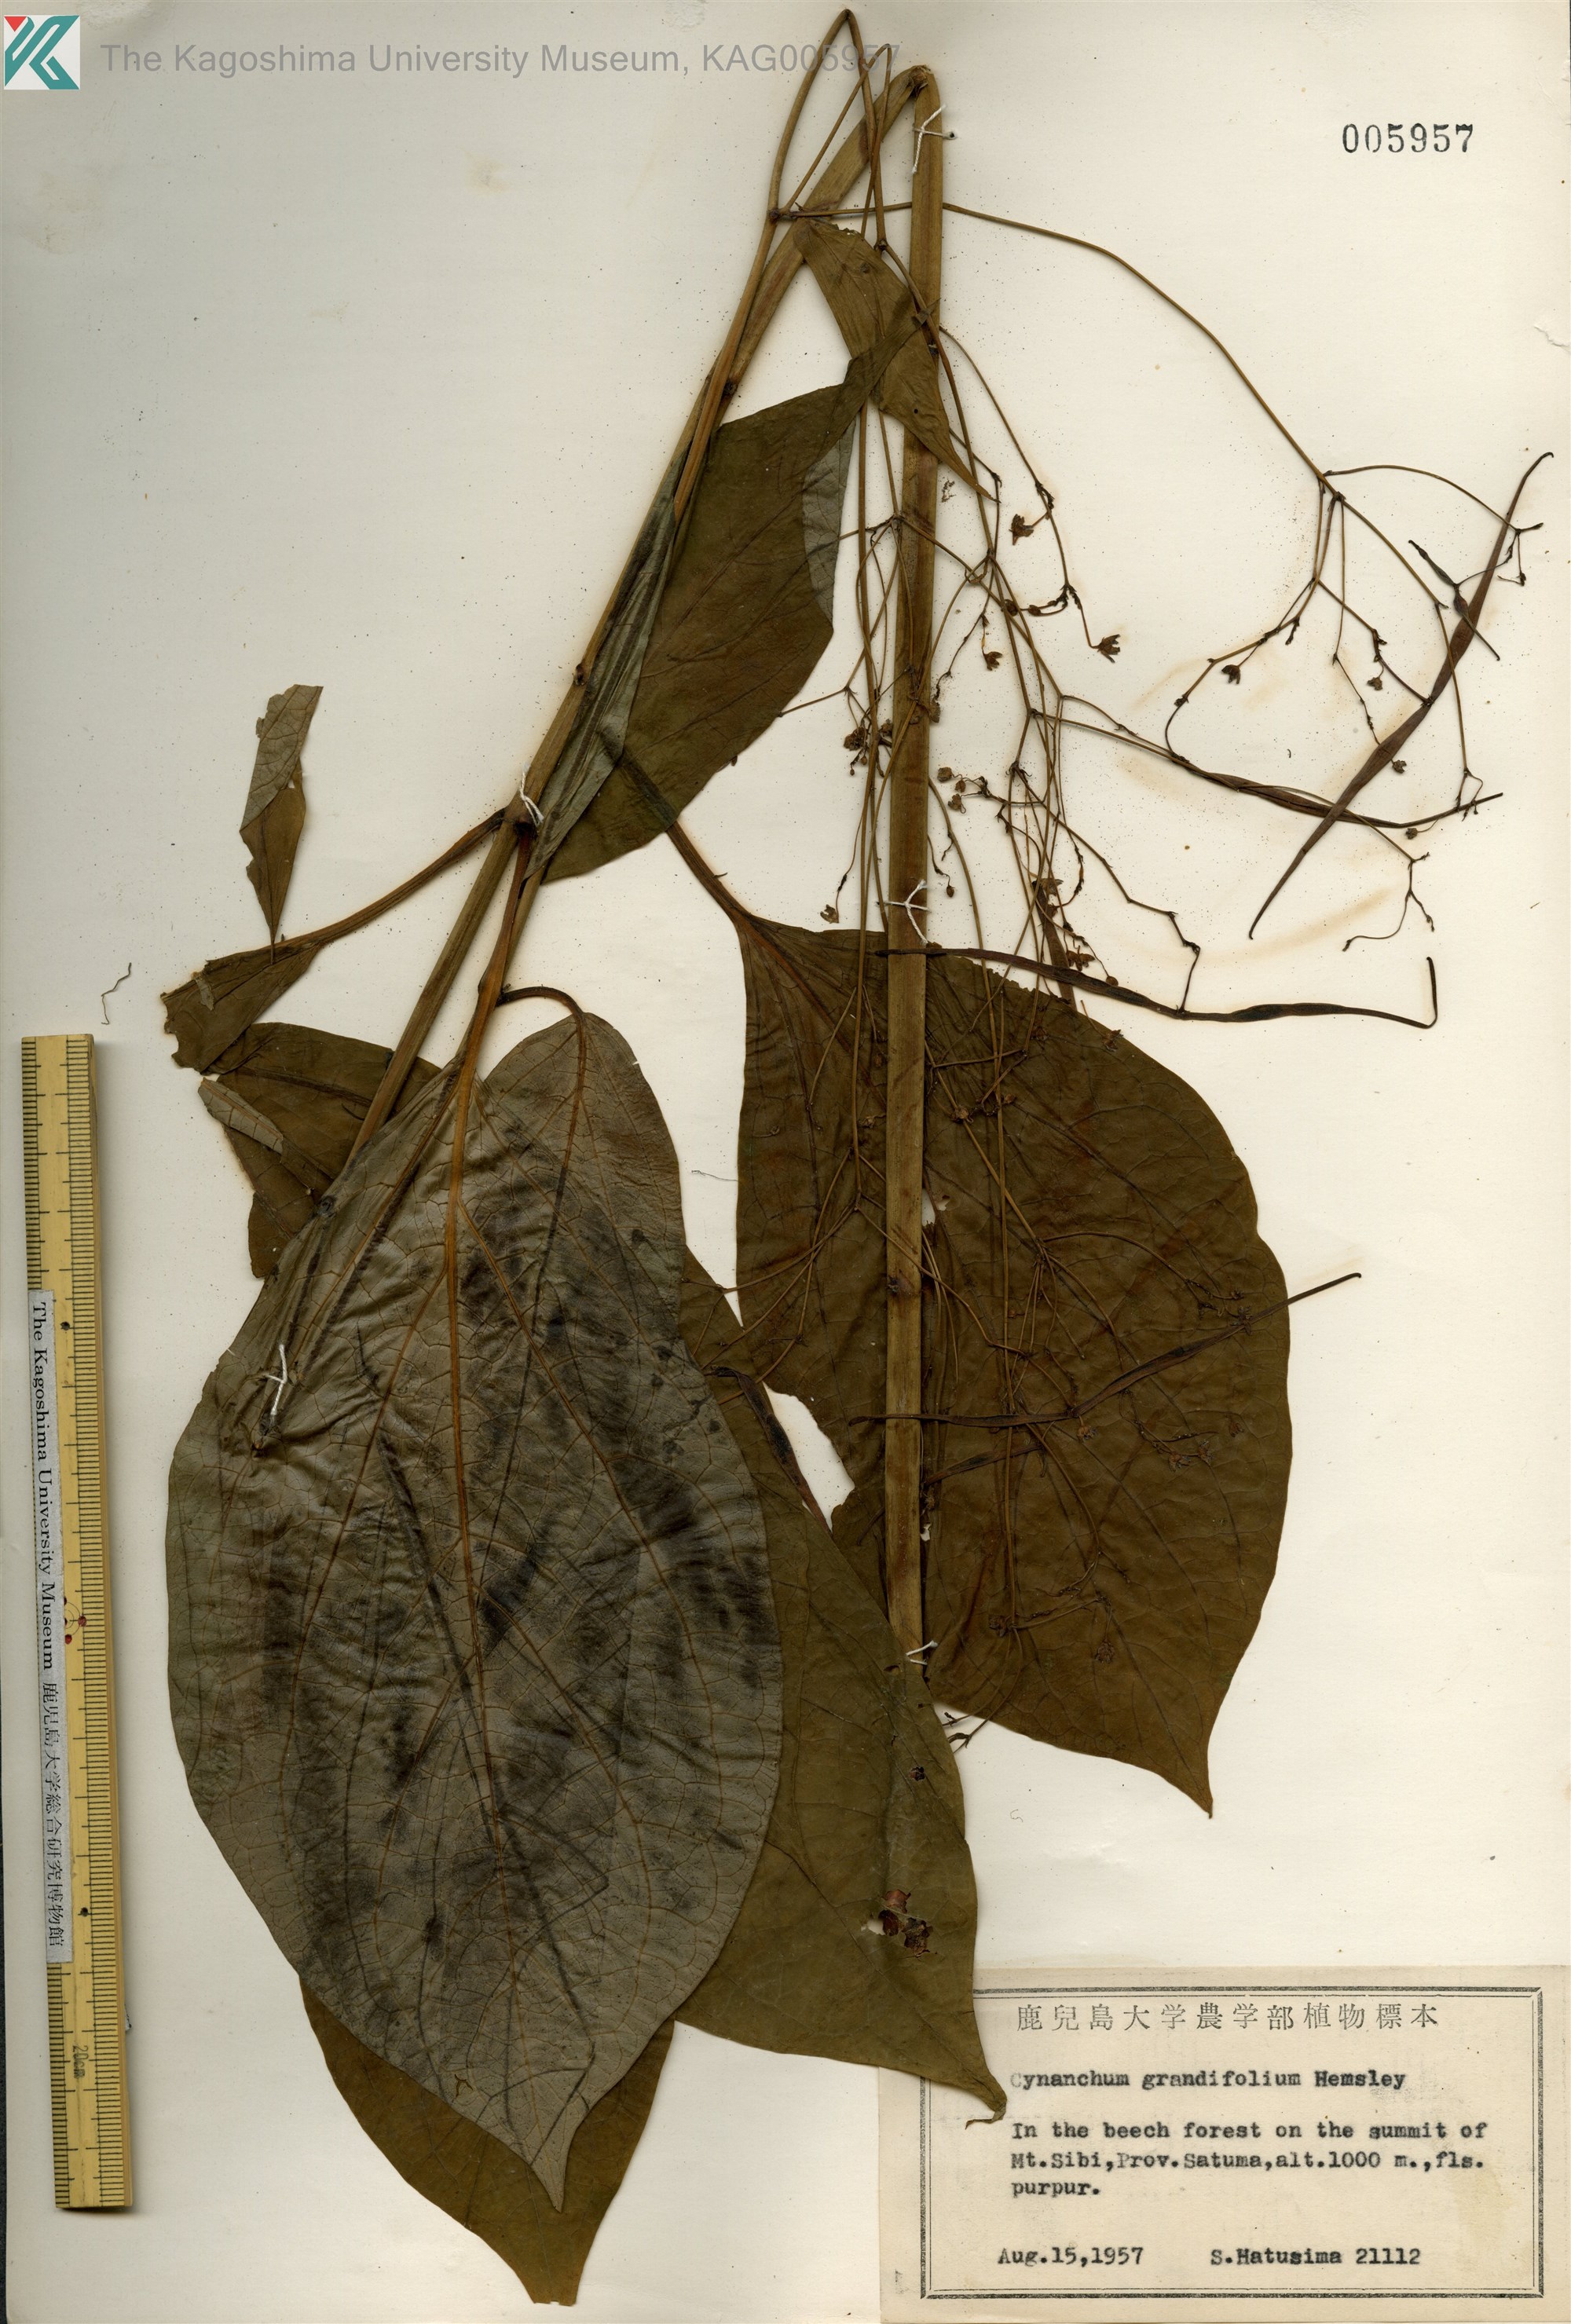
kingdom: Plantae
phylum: Tracheophyta
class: Magnoliopsida
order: Gentianales
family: Apocynaceae
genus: Vincetoxicum
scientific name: Vincetoxicum macrophyllum
